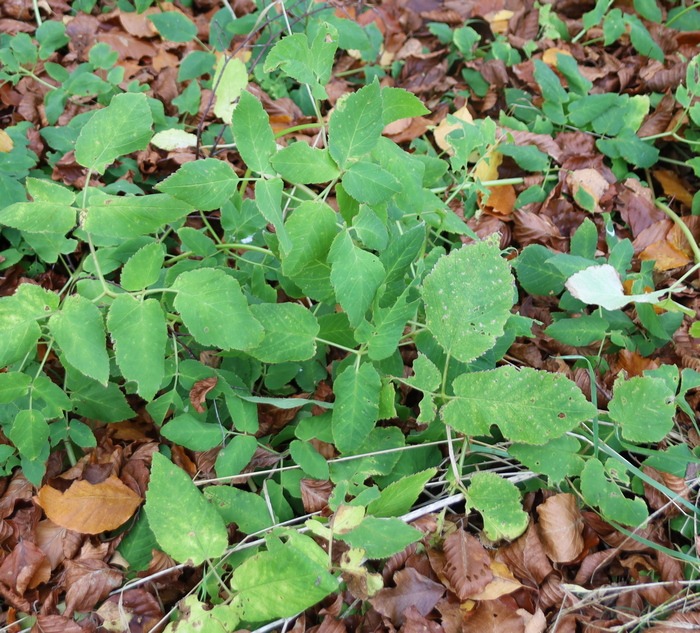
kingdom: Plantae
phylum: Tracheophyta
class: Magnoliopsida
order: Apiales
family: Apiaceae
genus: Aegopodium
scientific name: Aegopodium podagraria
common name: Skvalderkål
